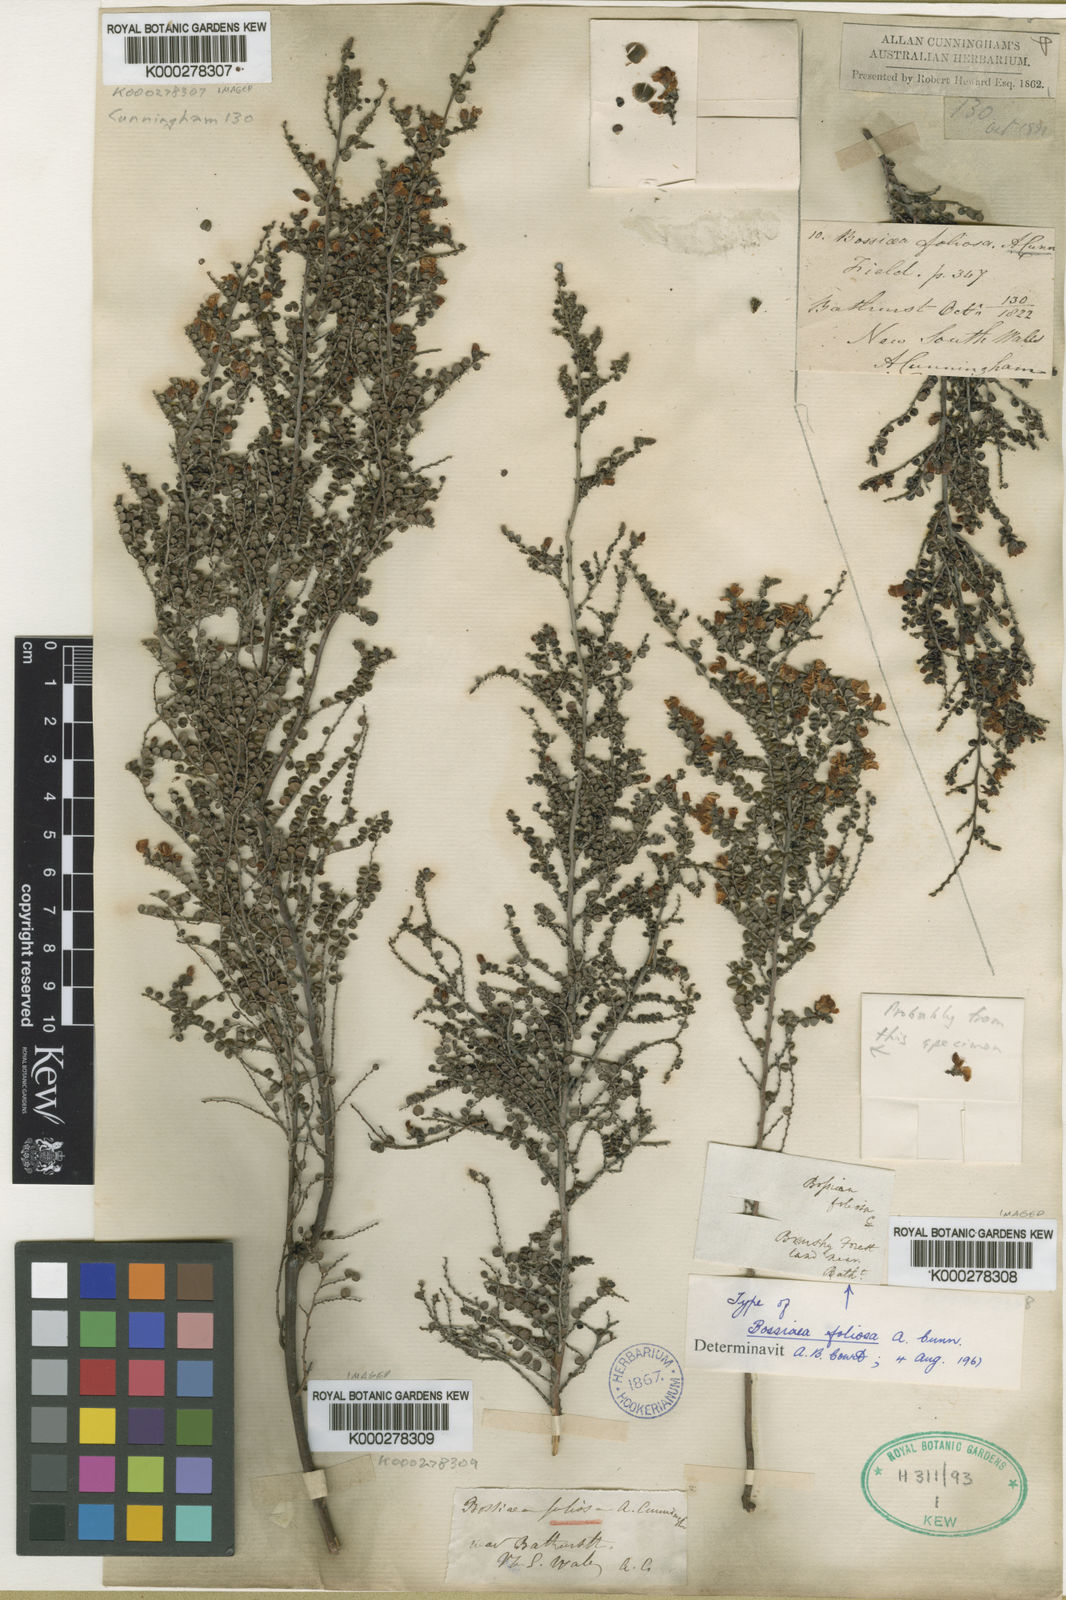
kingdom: Plantae
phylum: Tracheophyta
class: Magnoliopsida
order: Fabales
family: Fabaceae
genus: Bossiaea
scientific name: Bossiaea foliosa
